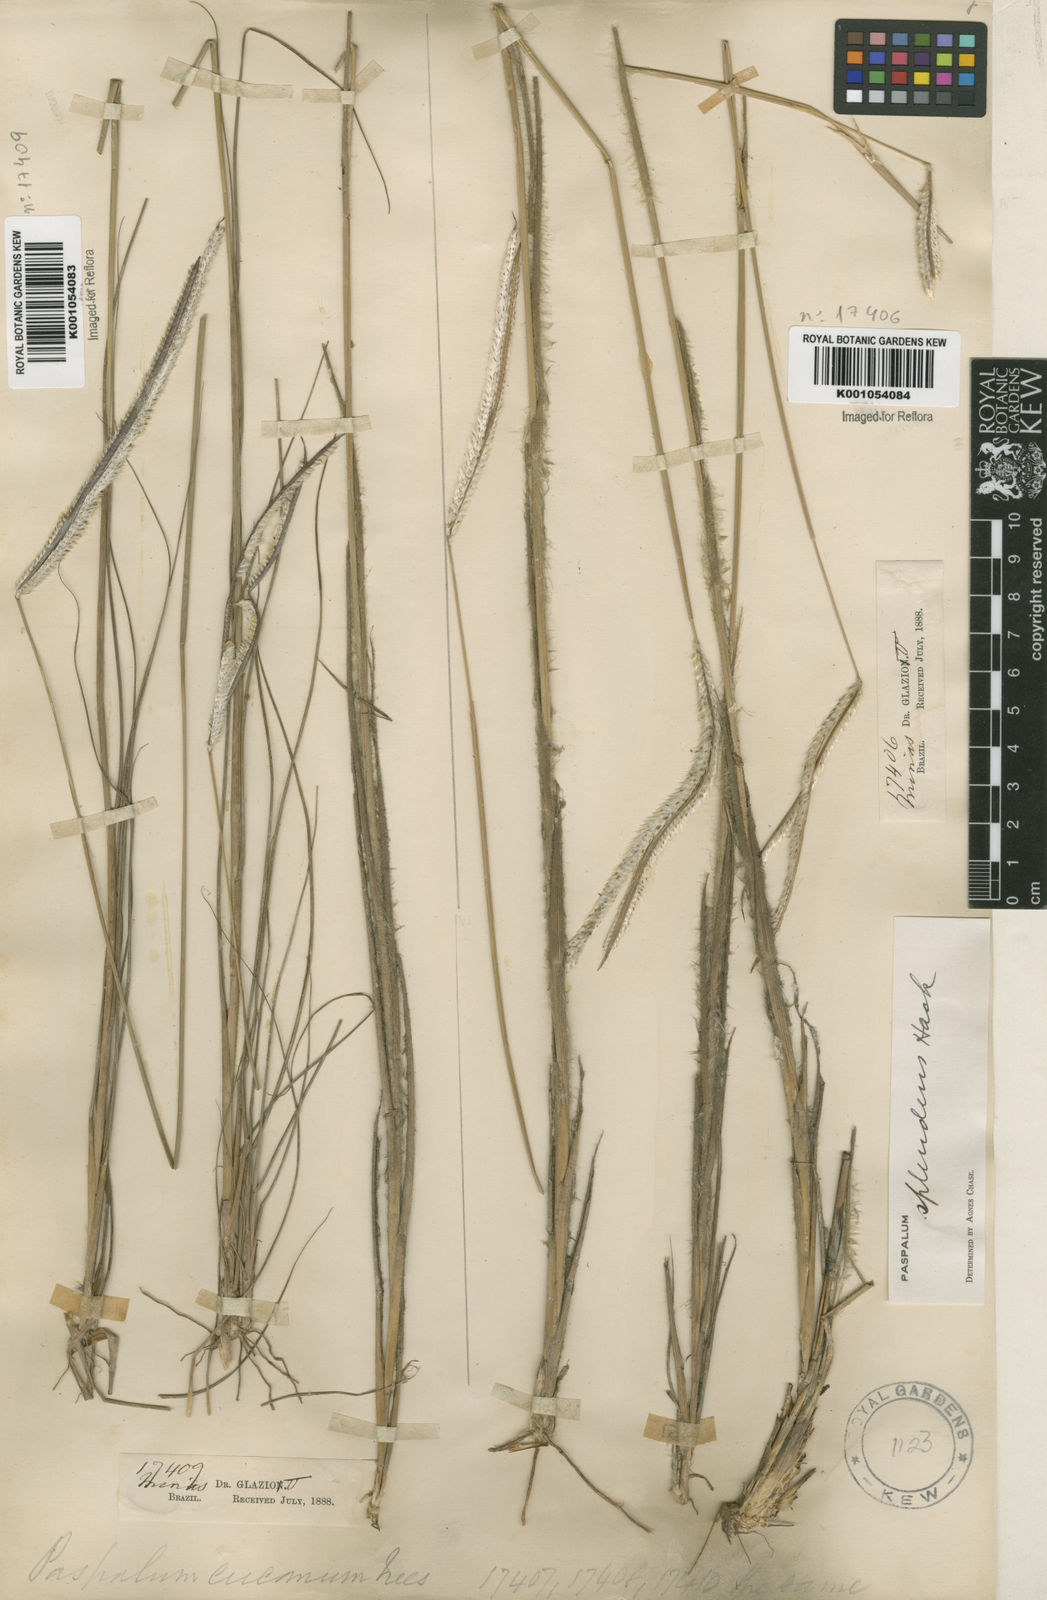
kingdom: Plantae
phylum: Tracheophyta
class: Liliopsida
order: Poales
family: Poaceae
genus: Paspalum
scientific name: Paspalum eucomum
